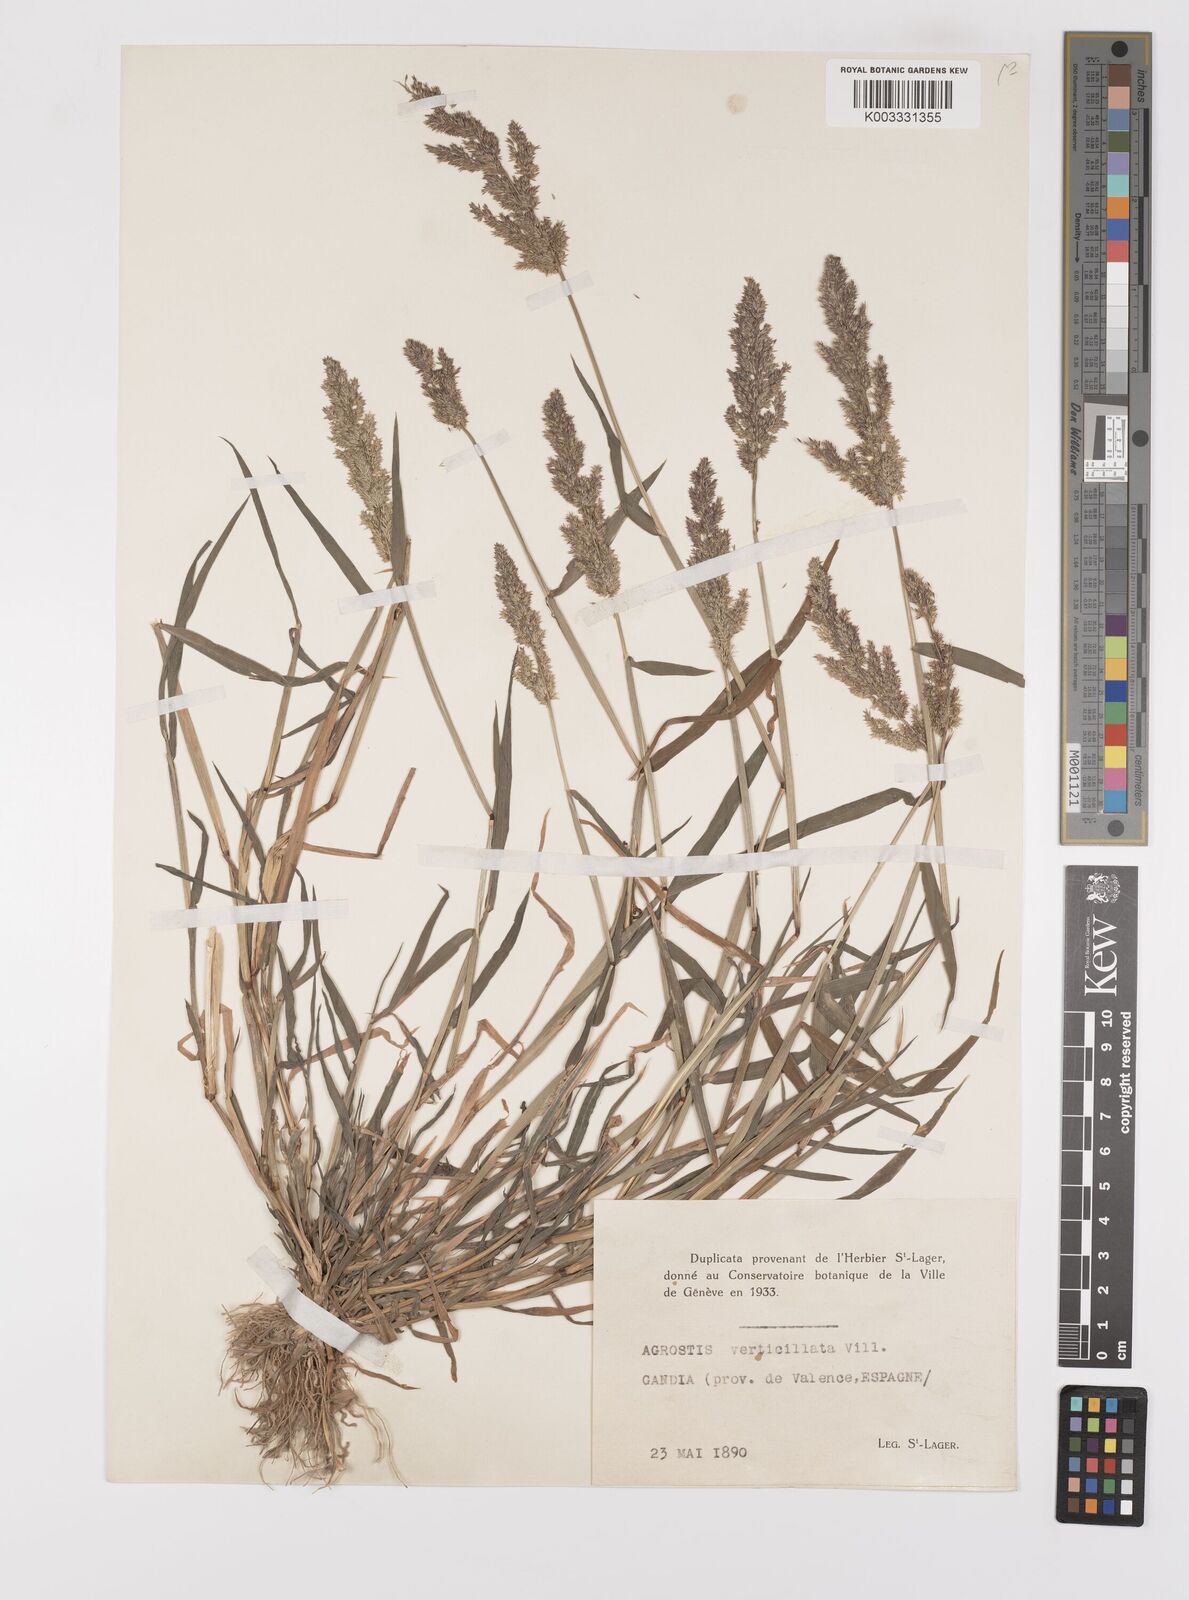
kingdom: Plantae
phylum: Tracheophyta
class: Liliopsida
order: Poales
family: Poaceae
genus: Polypogon
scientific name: Polypogon viridis
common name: Water bent
